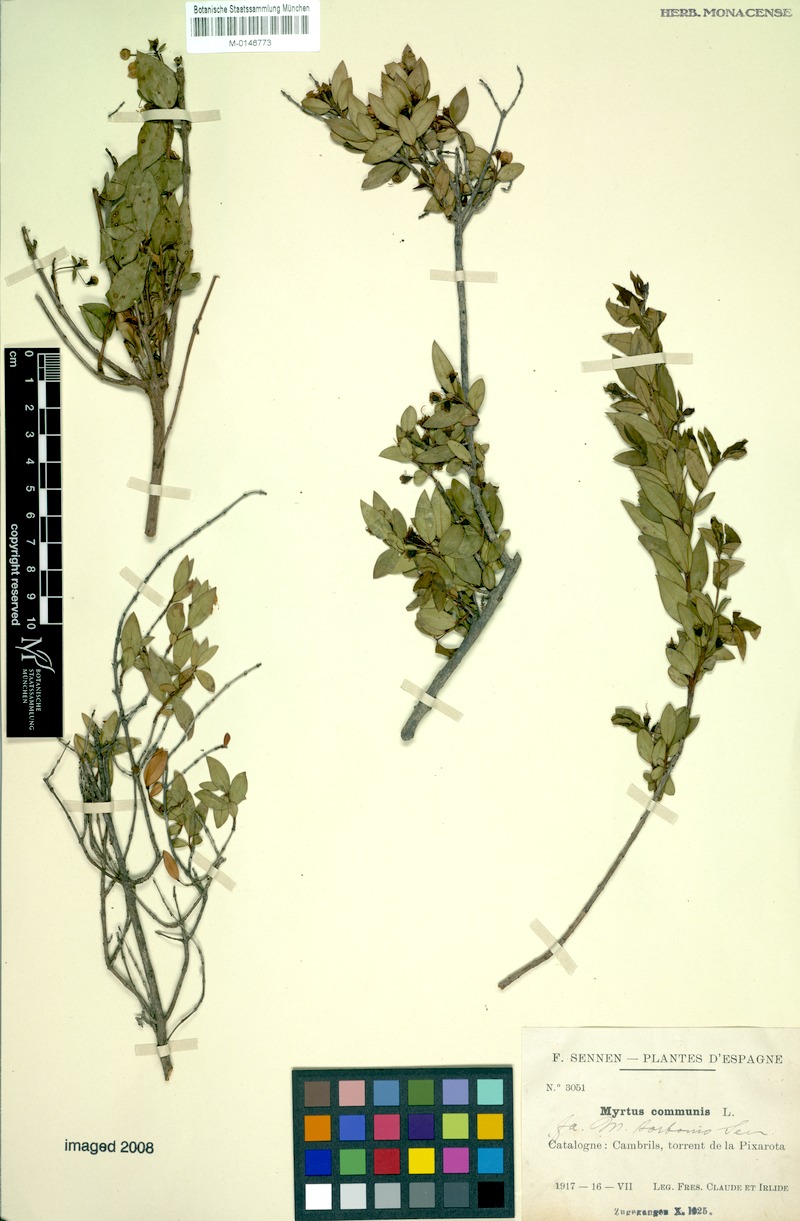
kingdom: Plantae
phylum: Tracheophyta
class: Magnoliopsida
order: Myrtales
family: Myrtaceae
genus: Myrtus
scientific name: Myrtus communis
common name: Myrtle
